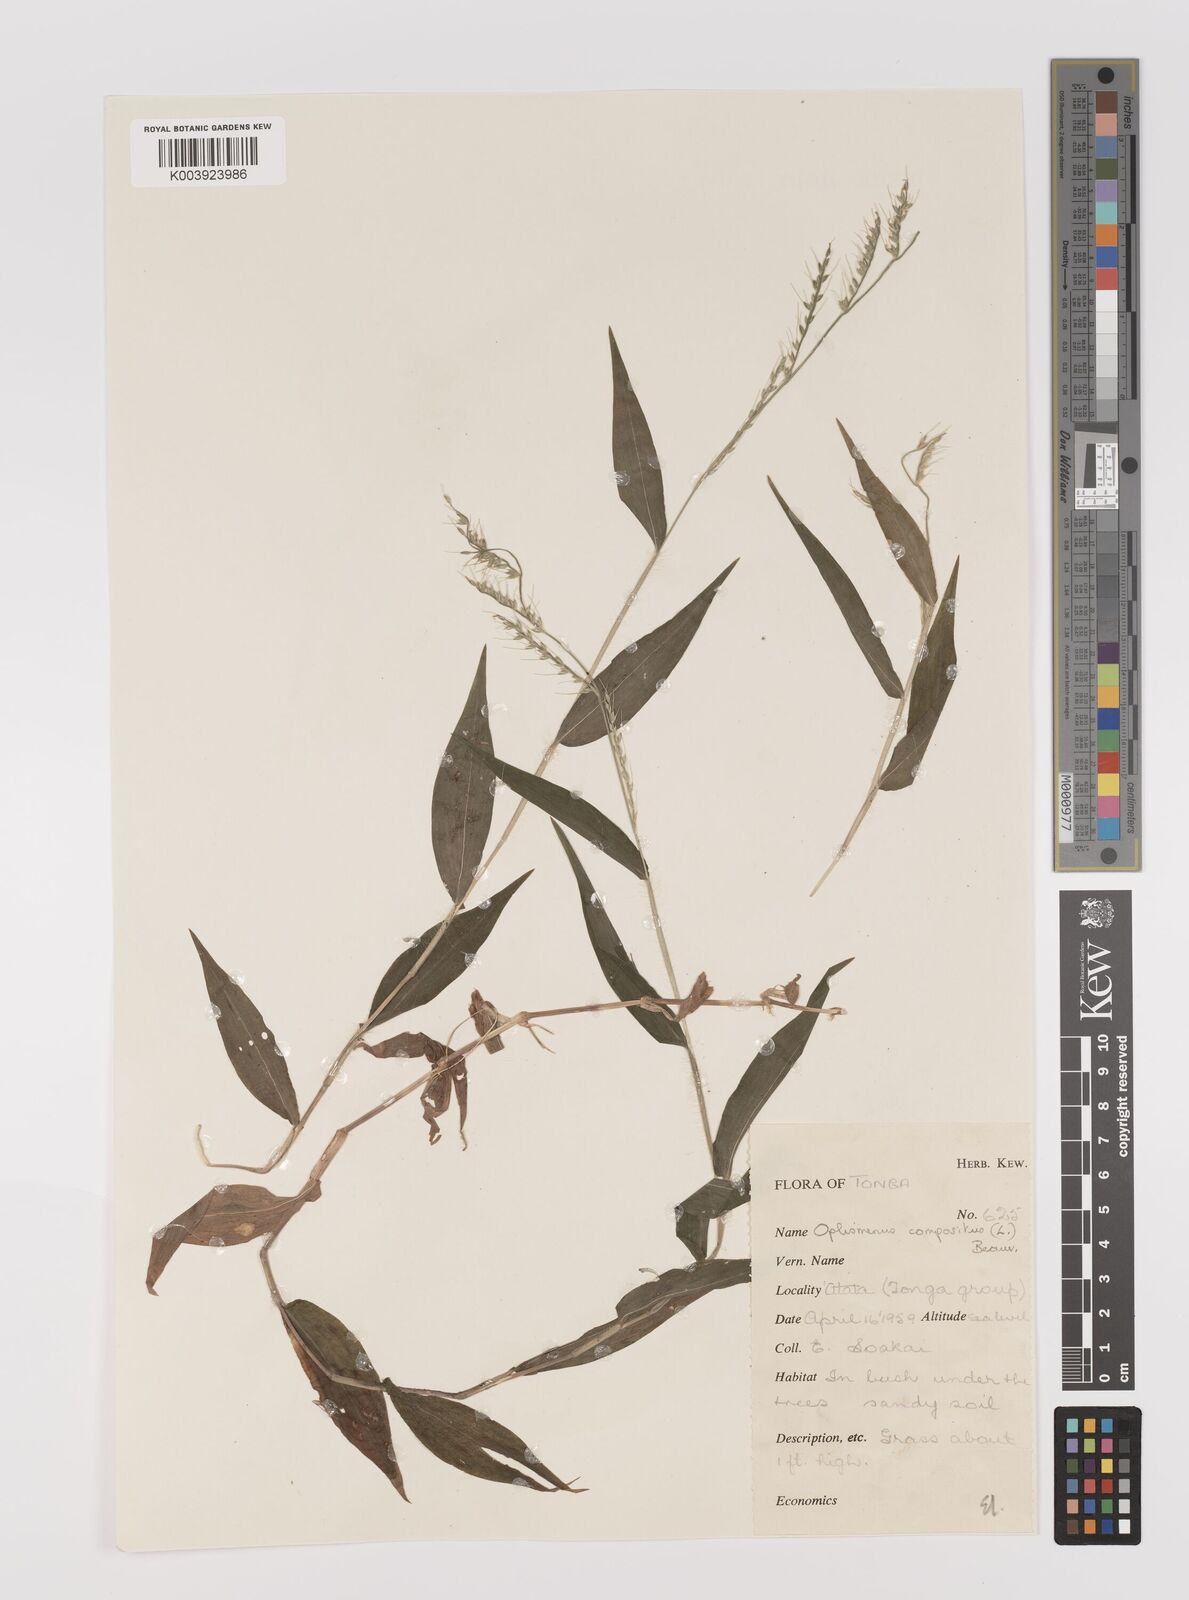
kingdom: Plantae
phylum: Tracheophyta
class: Liliopsida
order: Poales
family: Poaceae
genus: Oplismenus
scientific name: Oplismenus compositus
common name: Running mountain grass
